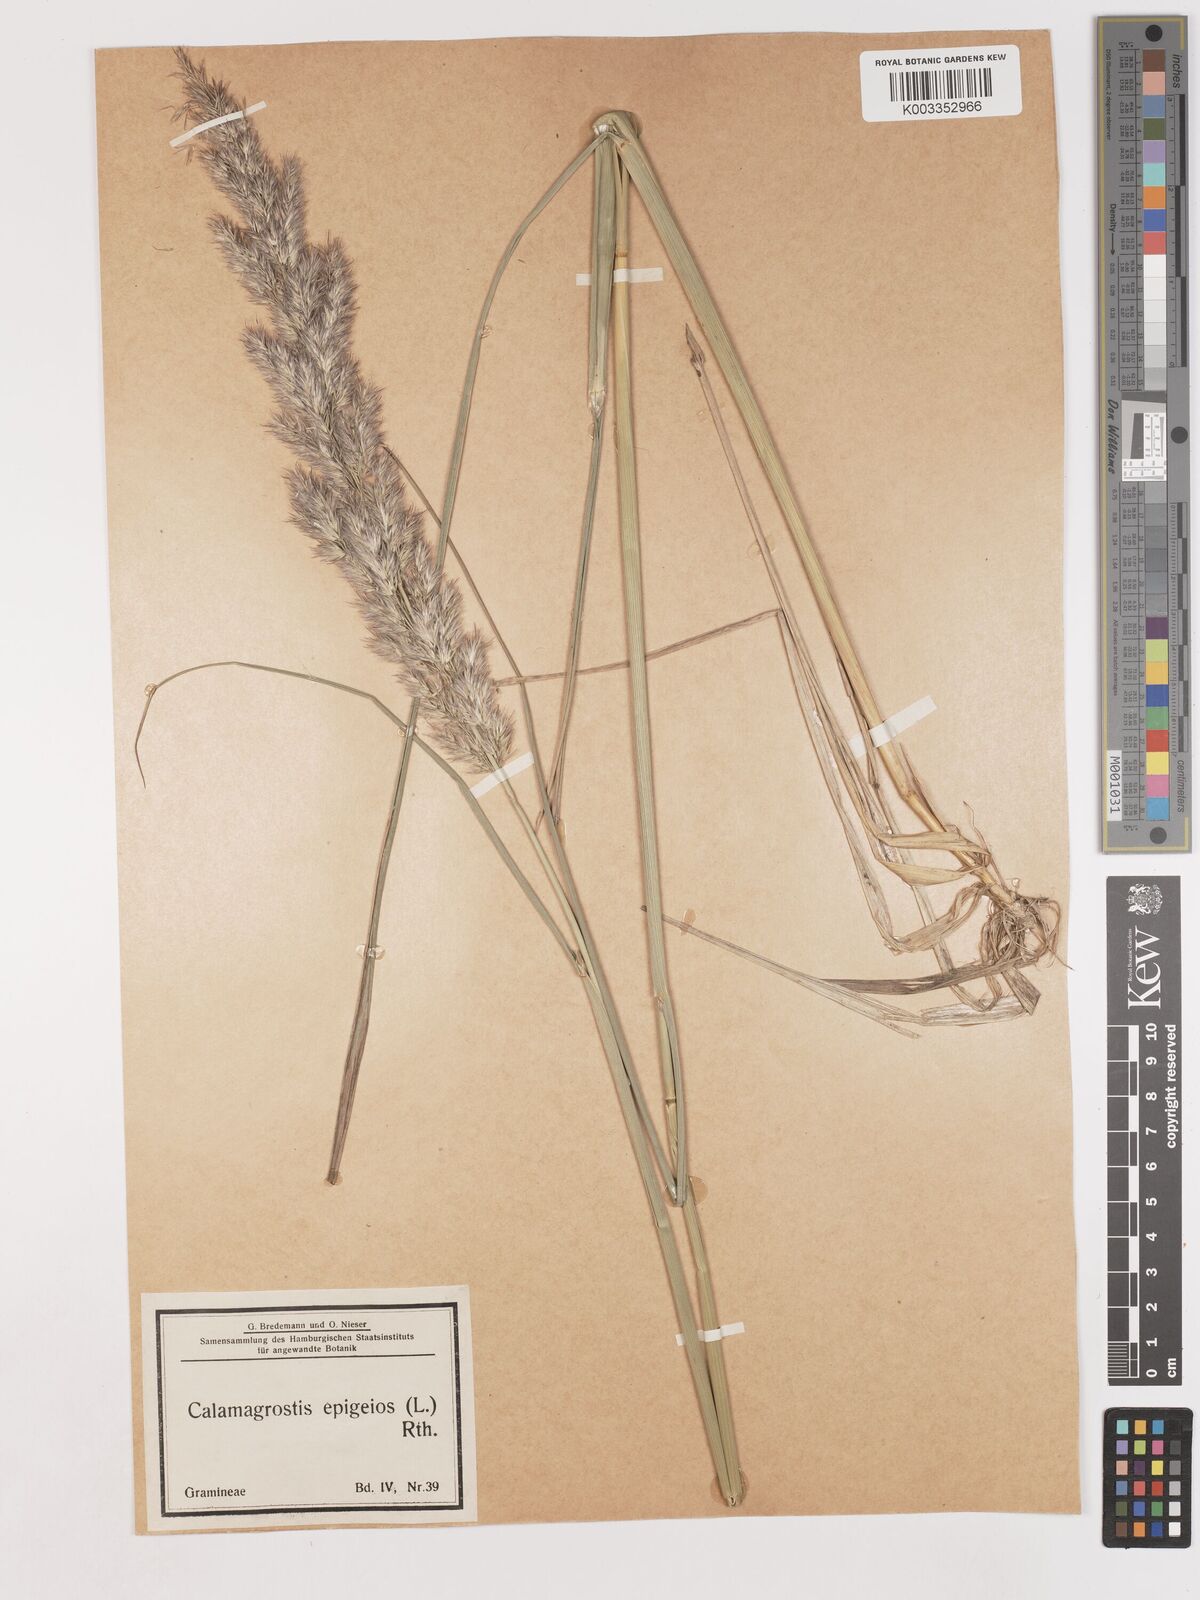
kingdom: Plantae
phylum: Tracheophyta
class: Liliopsida
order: Poales
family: Poaceae
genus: Calamagrostis
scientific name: Calamagrostis epigejos
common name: Wood small-reed
